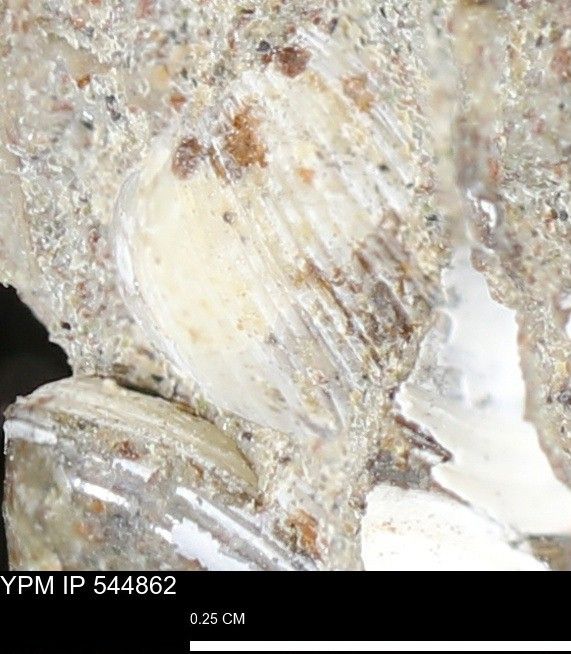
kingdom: Animalia
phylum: Mollusca
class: Bivalvia
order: Myida
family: Corbulidae
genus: Corbulamella
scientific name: Corbulamella
